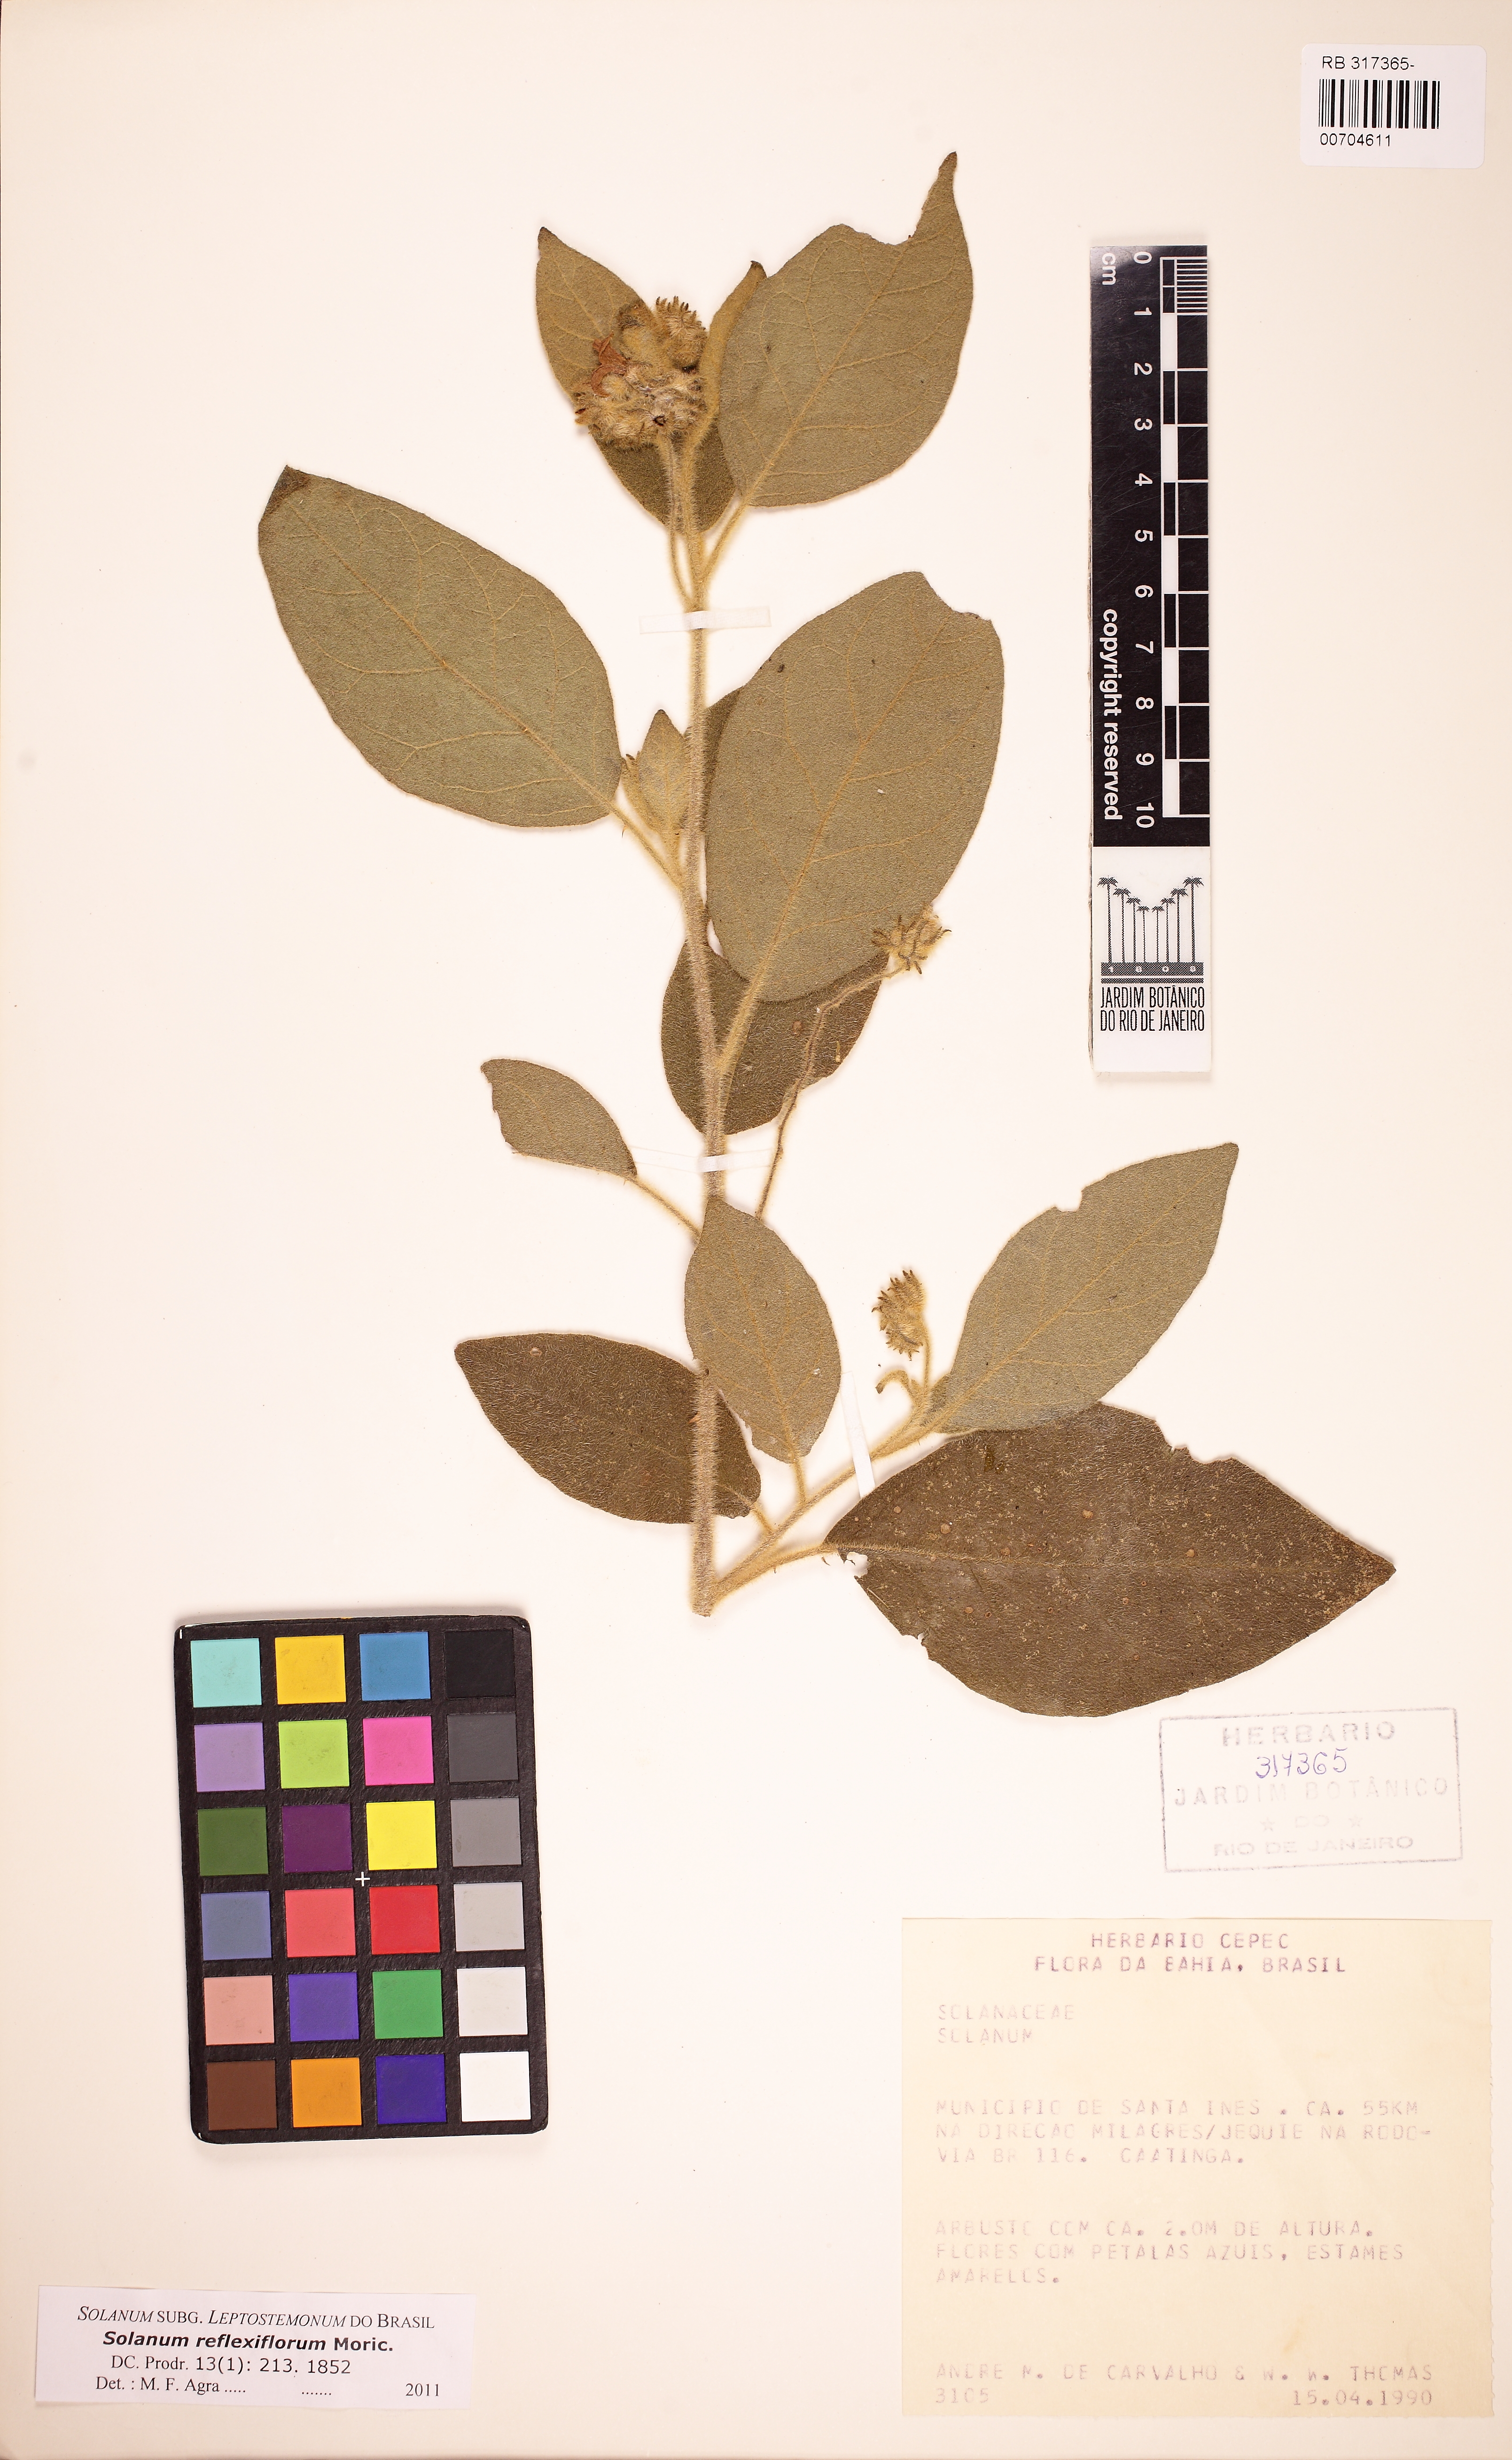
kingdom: Plantae
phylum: Tracheophyta
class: Magnoliopsida
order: Solanales
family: Solanaceae
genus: Solanum
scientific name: Solanum reflexiflorum
